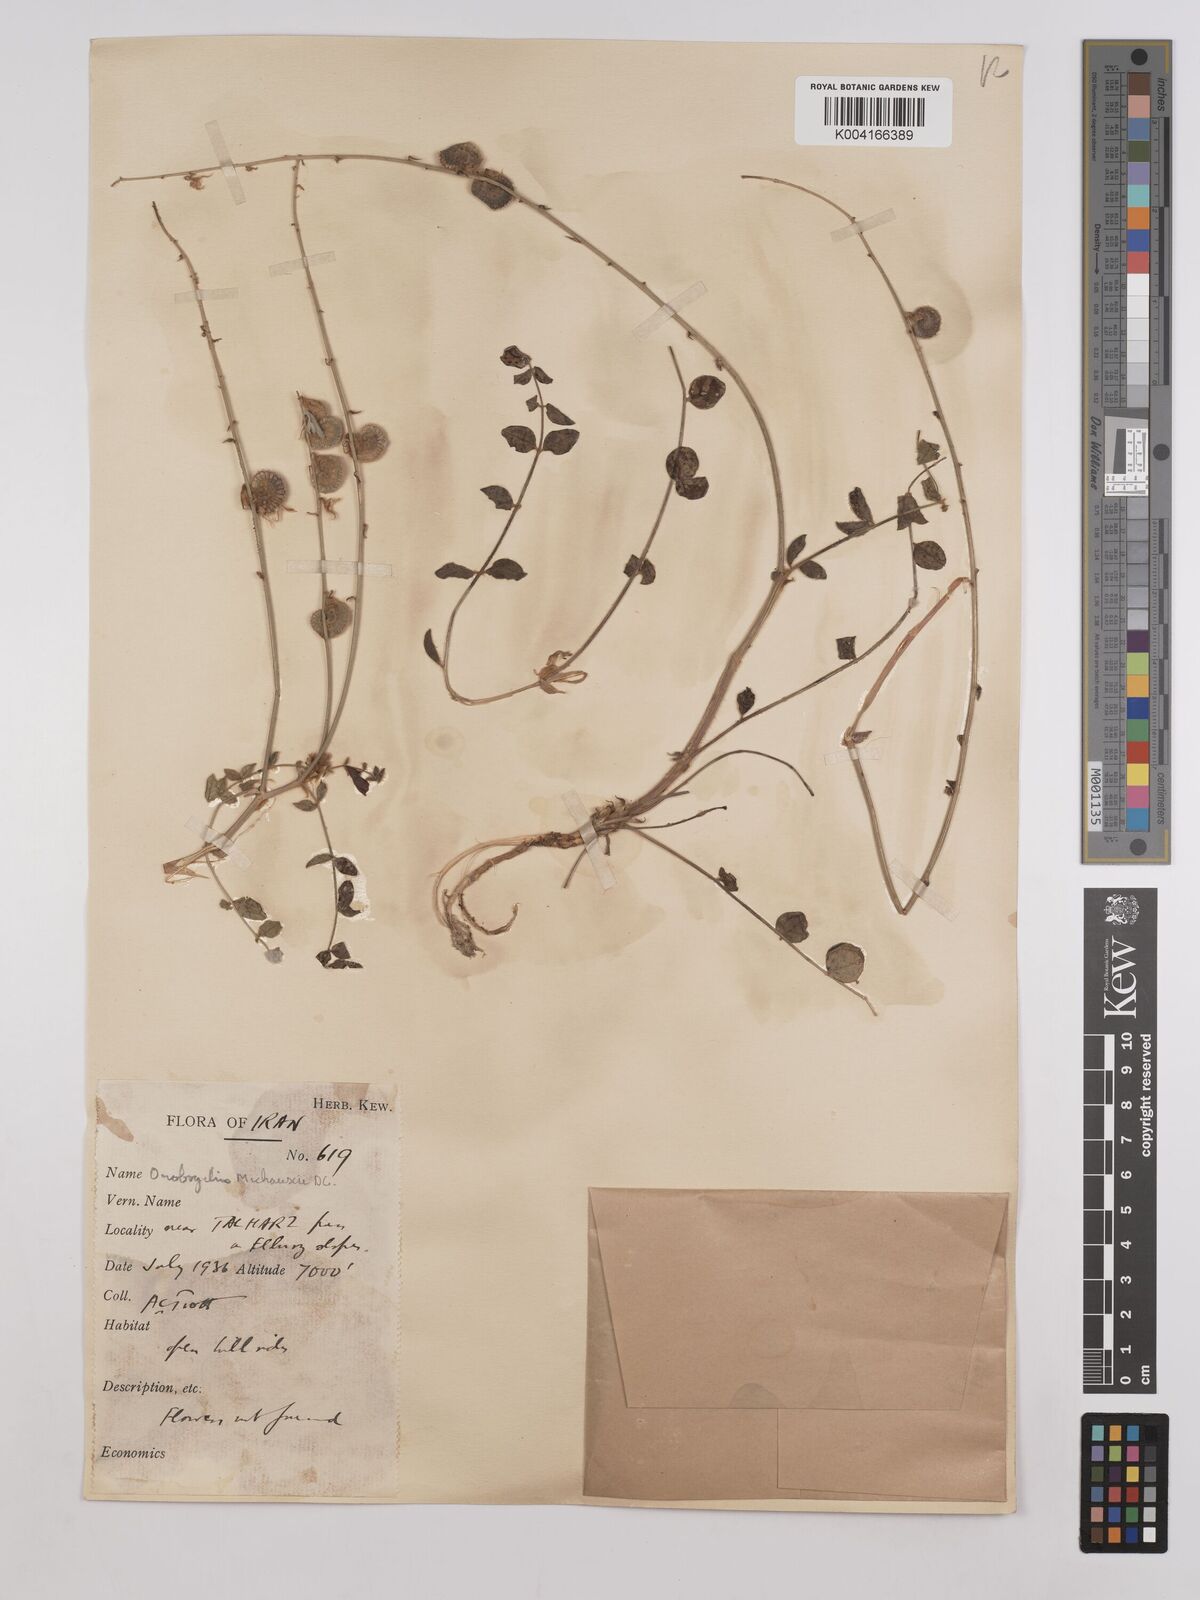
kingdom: Plantae
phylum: Tracheophyta
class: Magnoliopsida
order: Fabales
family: Fabaceae
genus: Onobrychis
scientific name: Onobrychis michauxii
